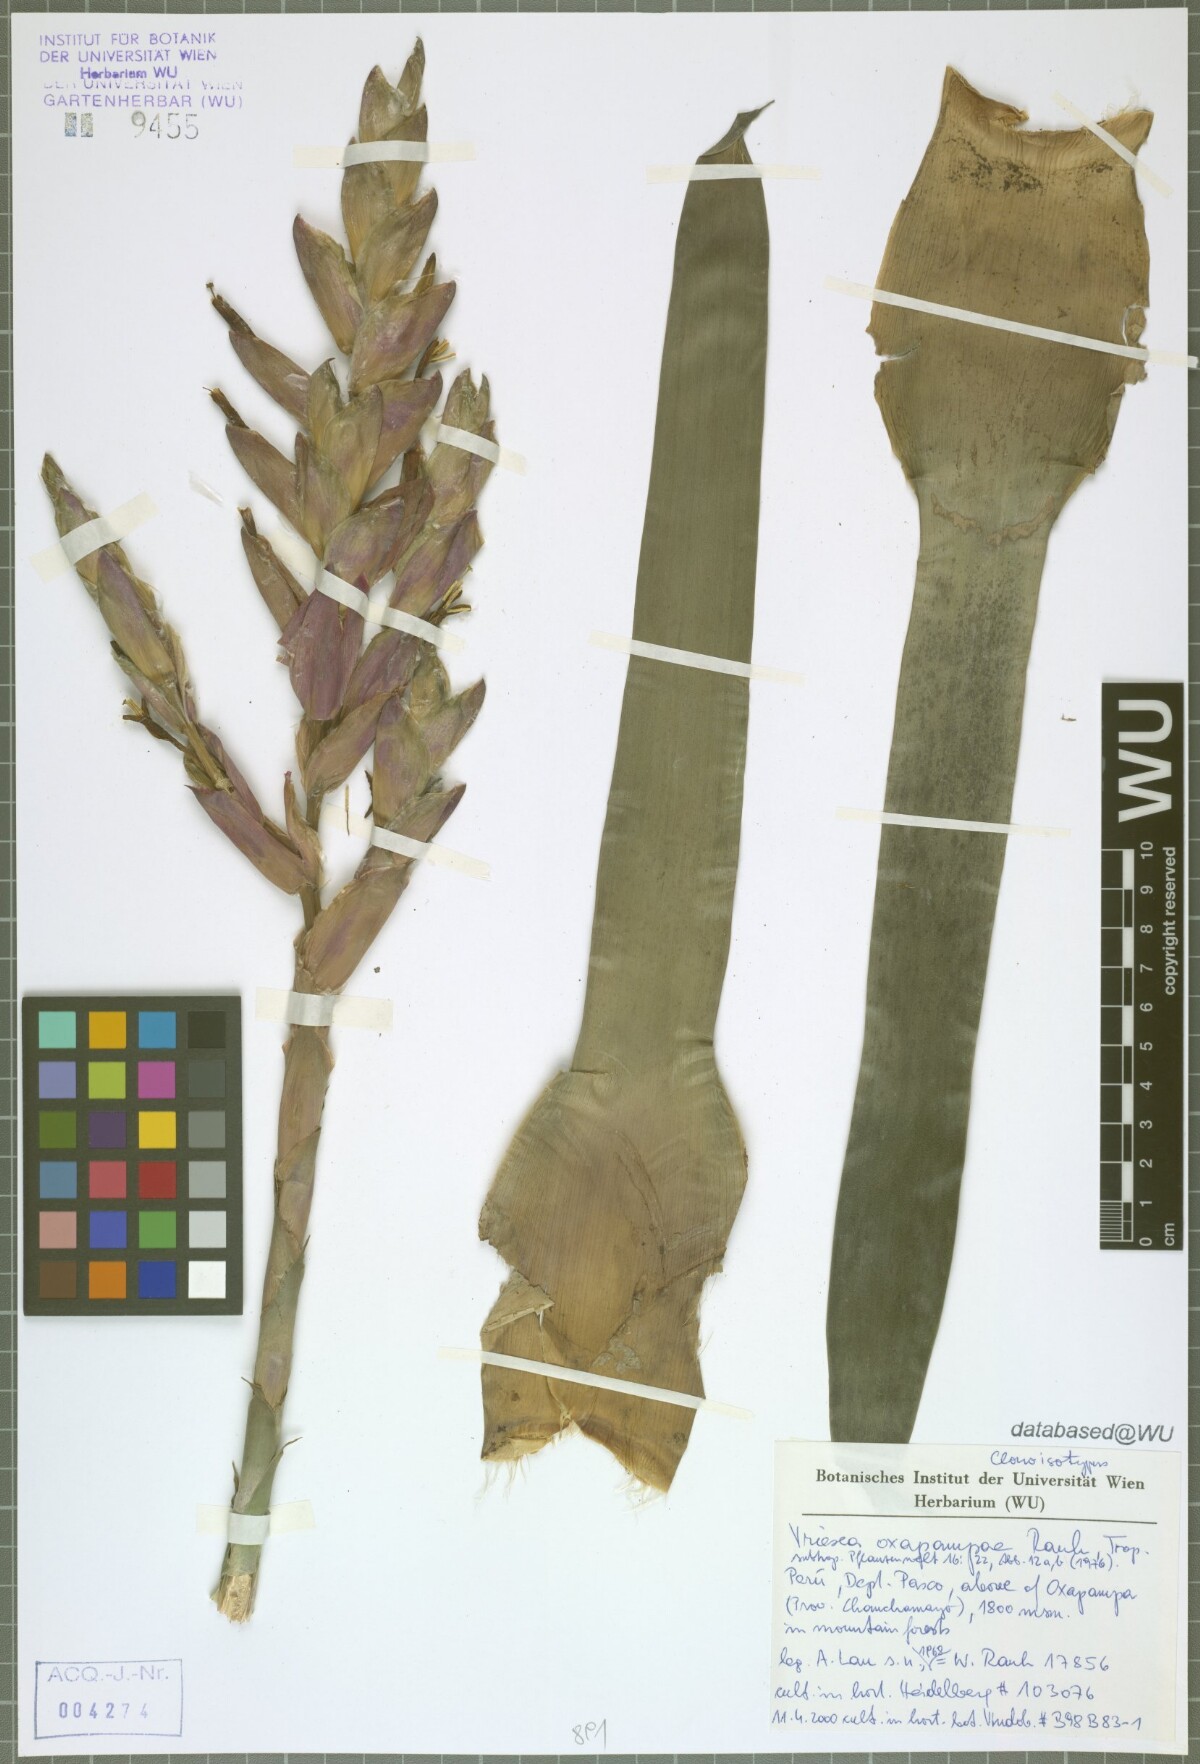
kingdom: Plantae
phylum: Tracheophyta
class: Liliopsida
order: Poales
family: Bromeliaceae
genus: Vriesea
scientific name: Vriesea oxapampae
